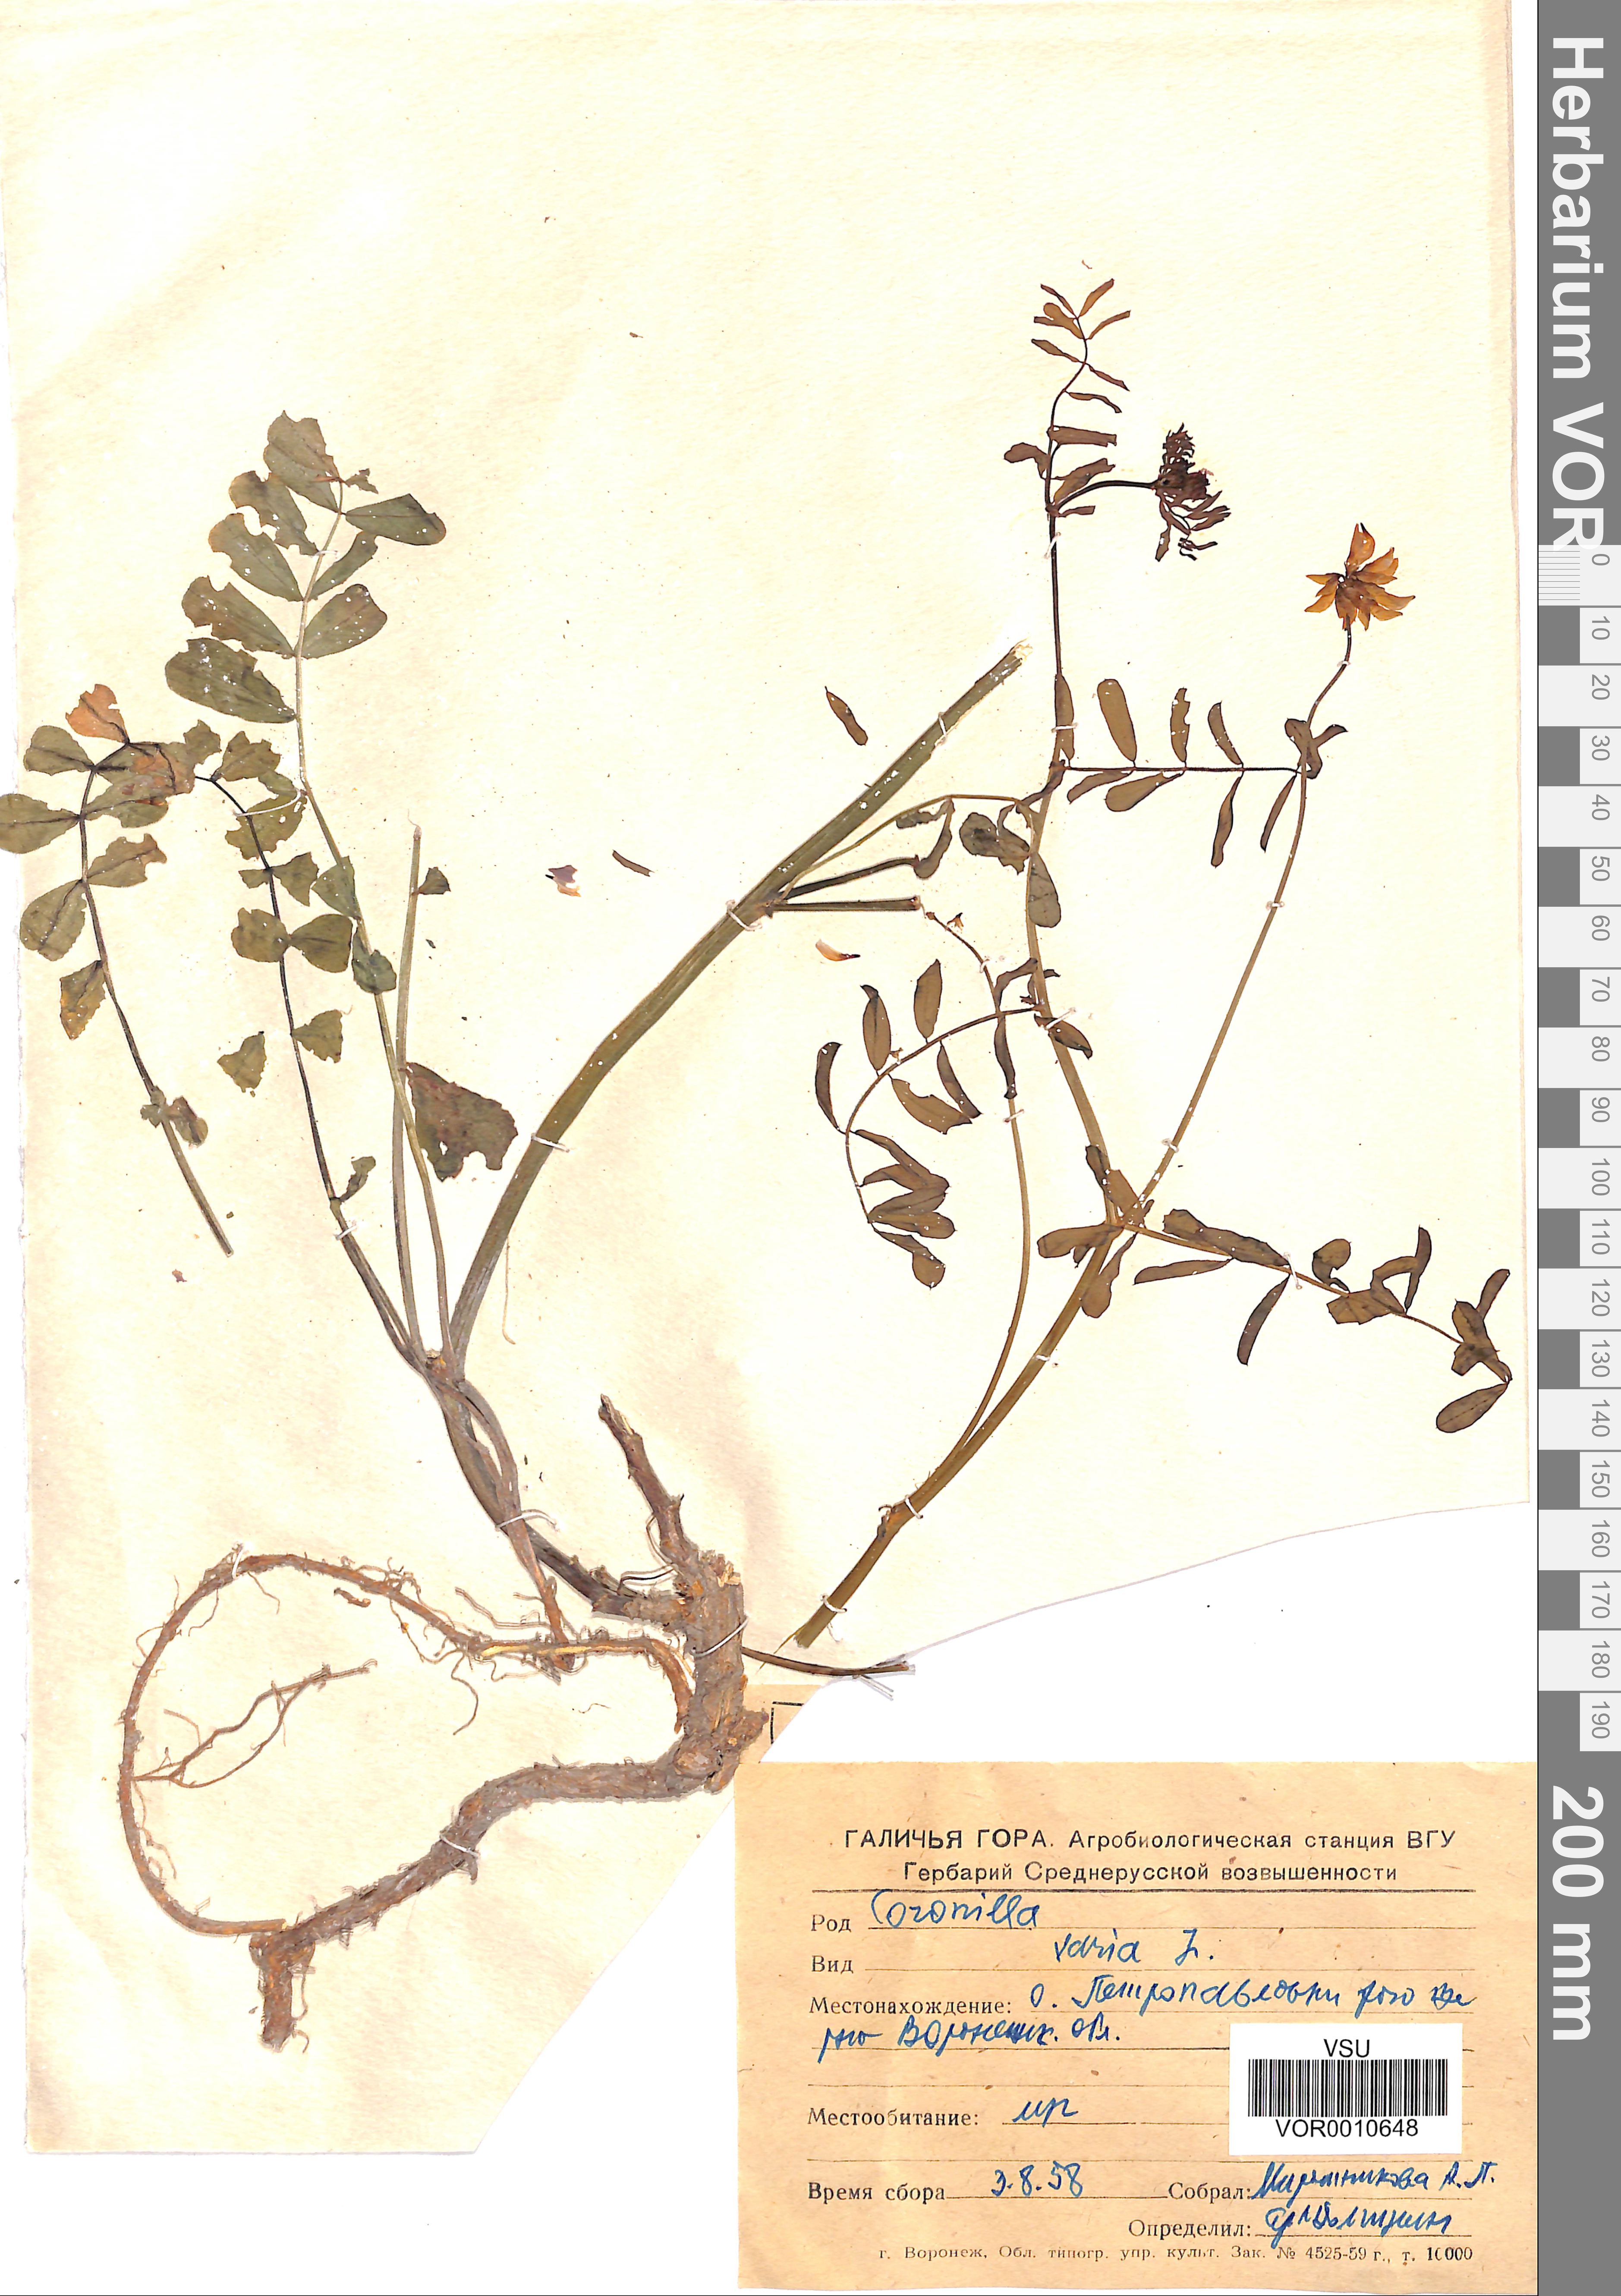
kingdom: Plantae
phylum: Tracheophyta
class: Magnoliopsida
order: Fabales
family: Fabaceae
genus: Coronilla
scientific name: Coronilla varia
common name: Crownvetch
